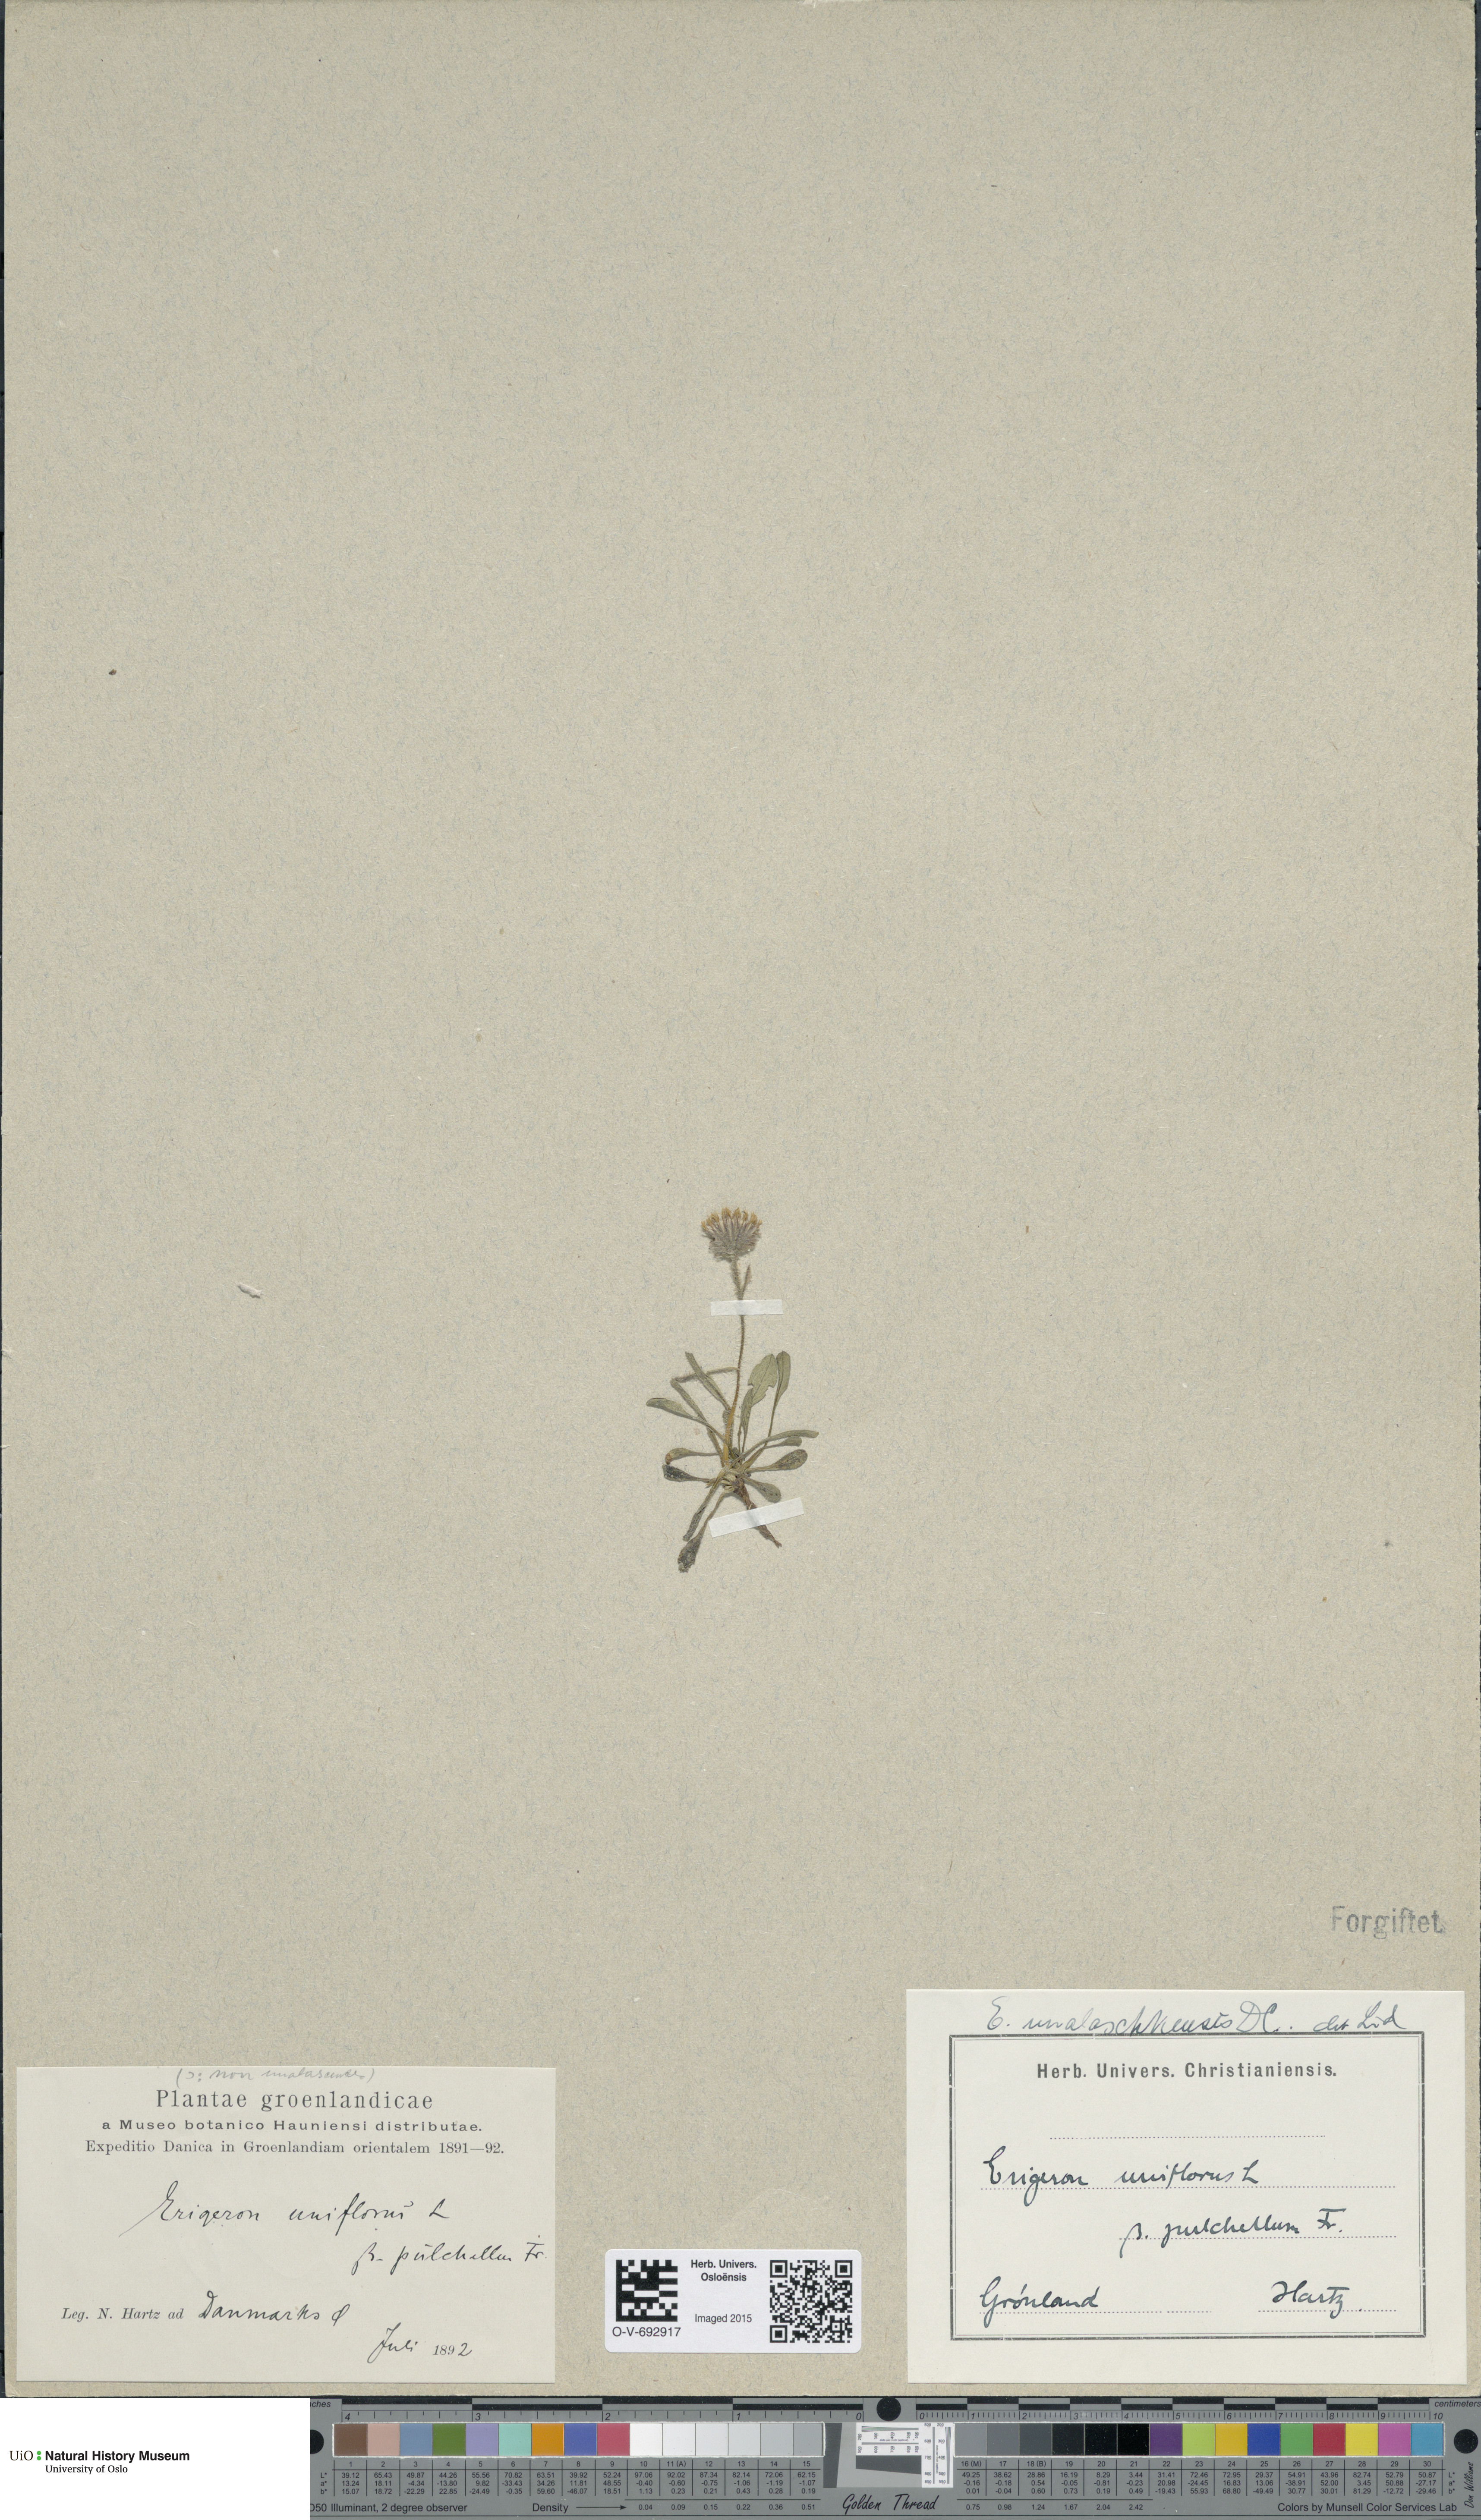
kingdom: Plantae
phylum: Tracheophyta
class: Magnoliopsida
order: Asterales
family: Asteraceae
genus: Erigeron
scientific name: Erigeron humilis
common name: Arctic-alpine fleabane
